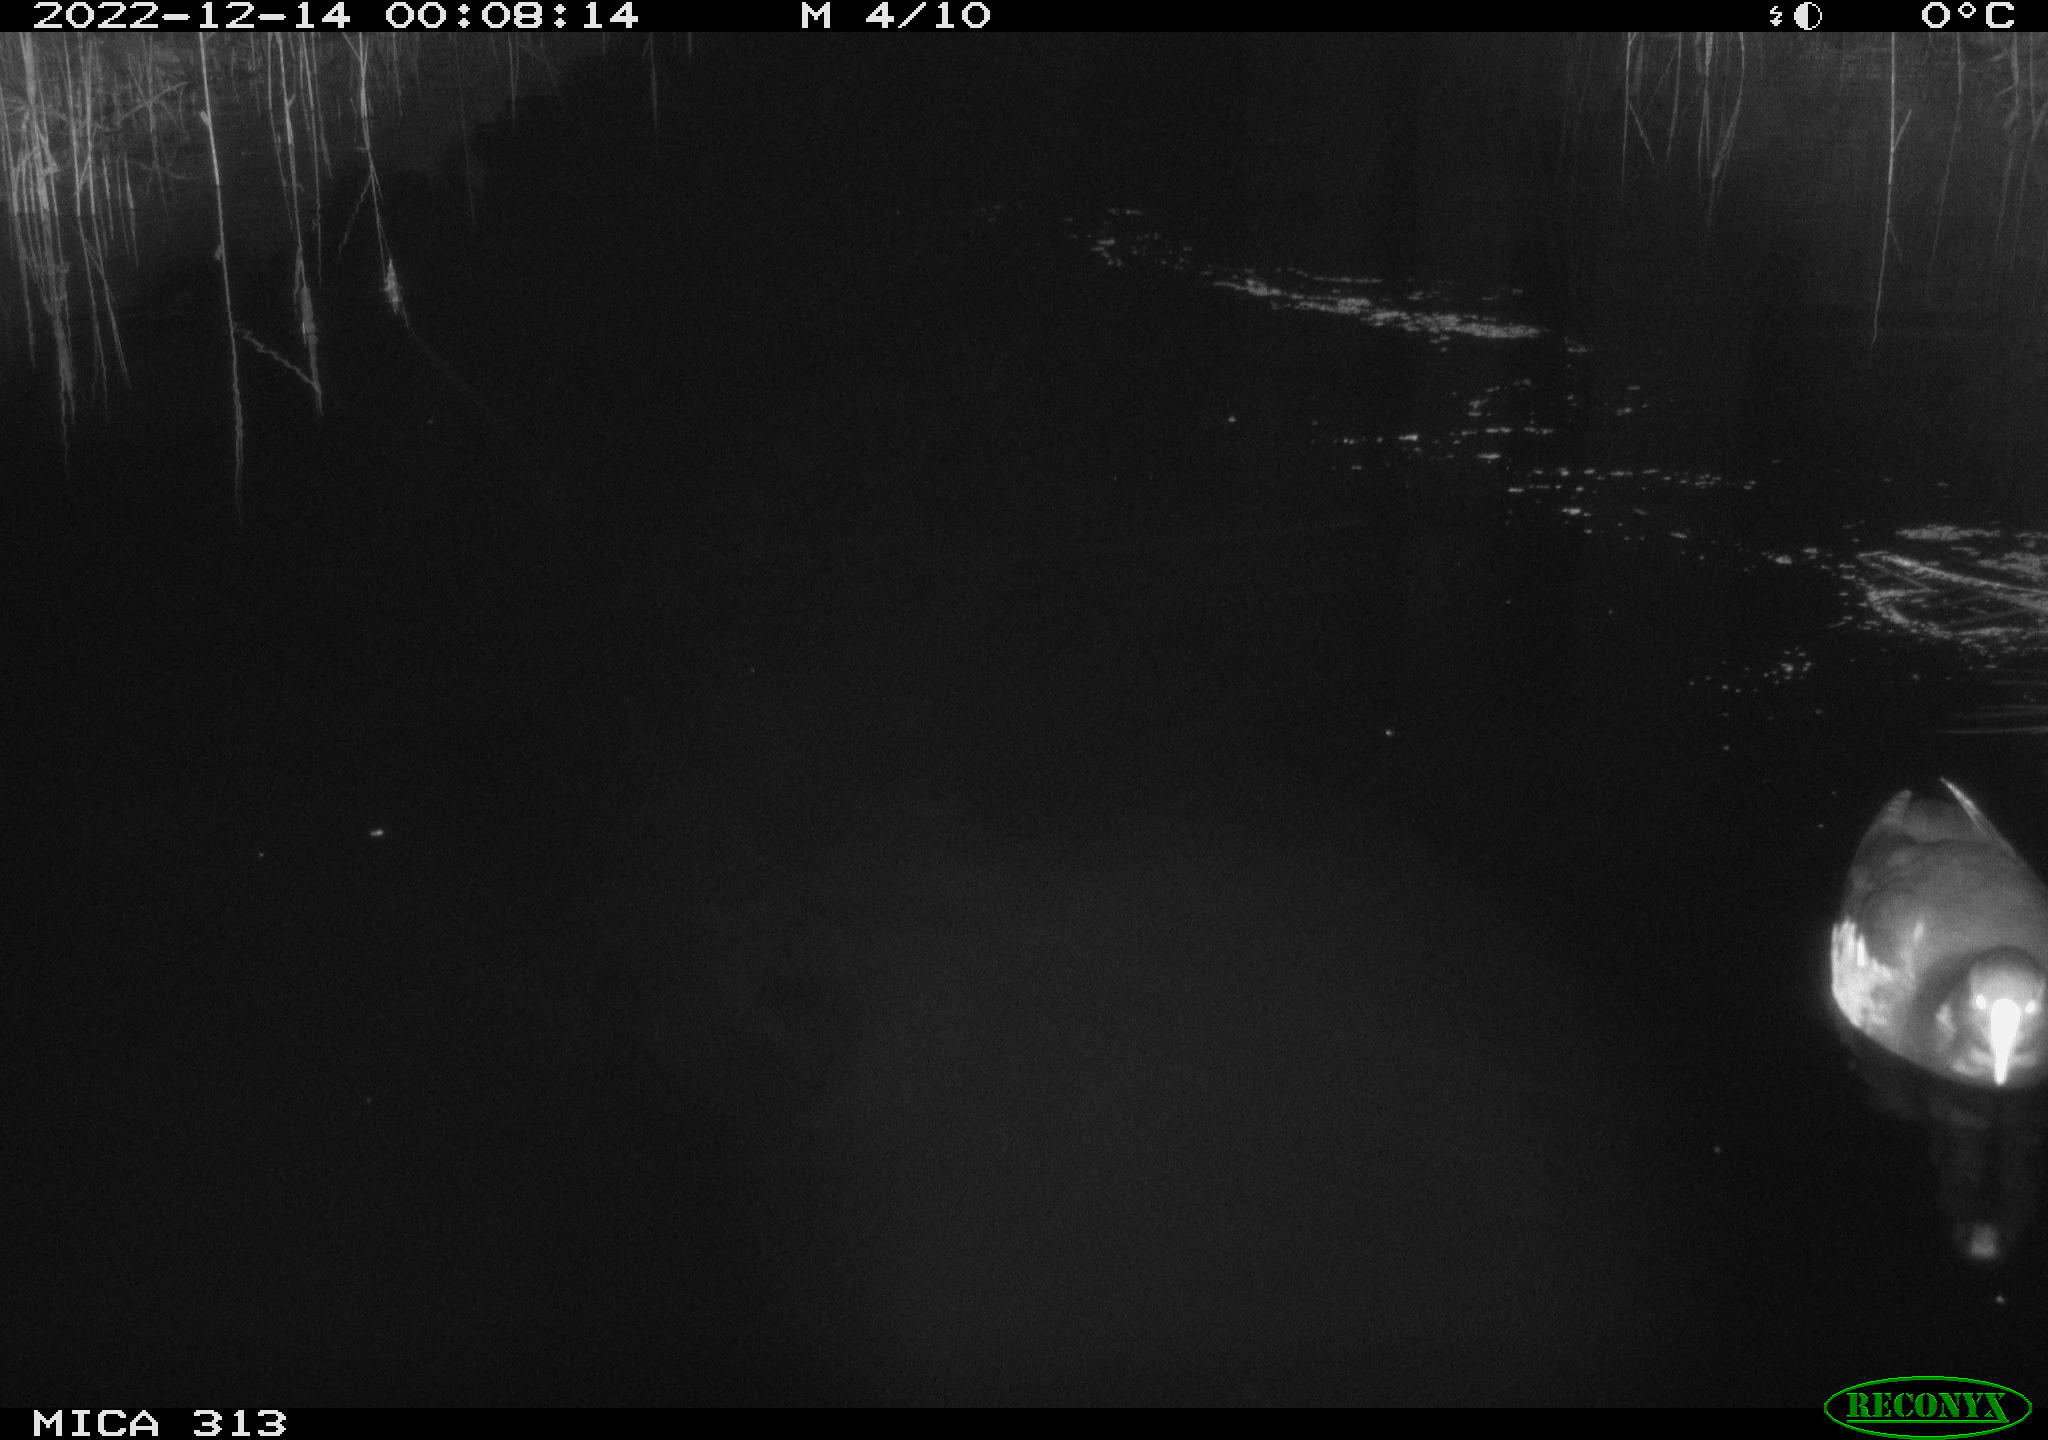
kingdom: Animalia
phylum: Chordata
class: Aves
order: Anseriformes
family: Anatidae
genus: Anas
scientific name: Anas
